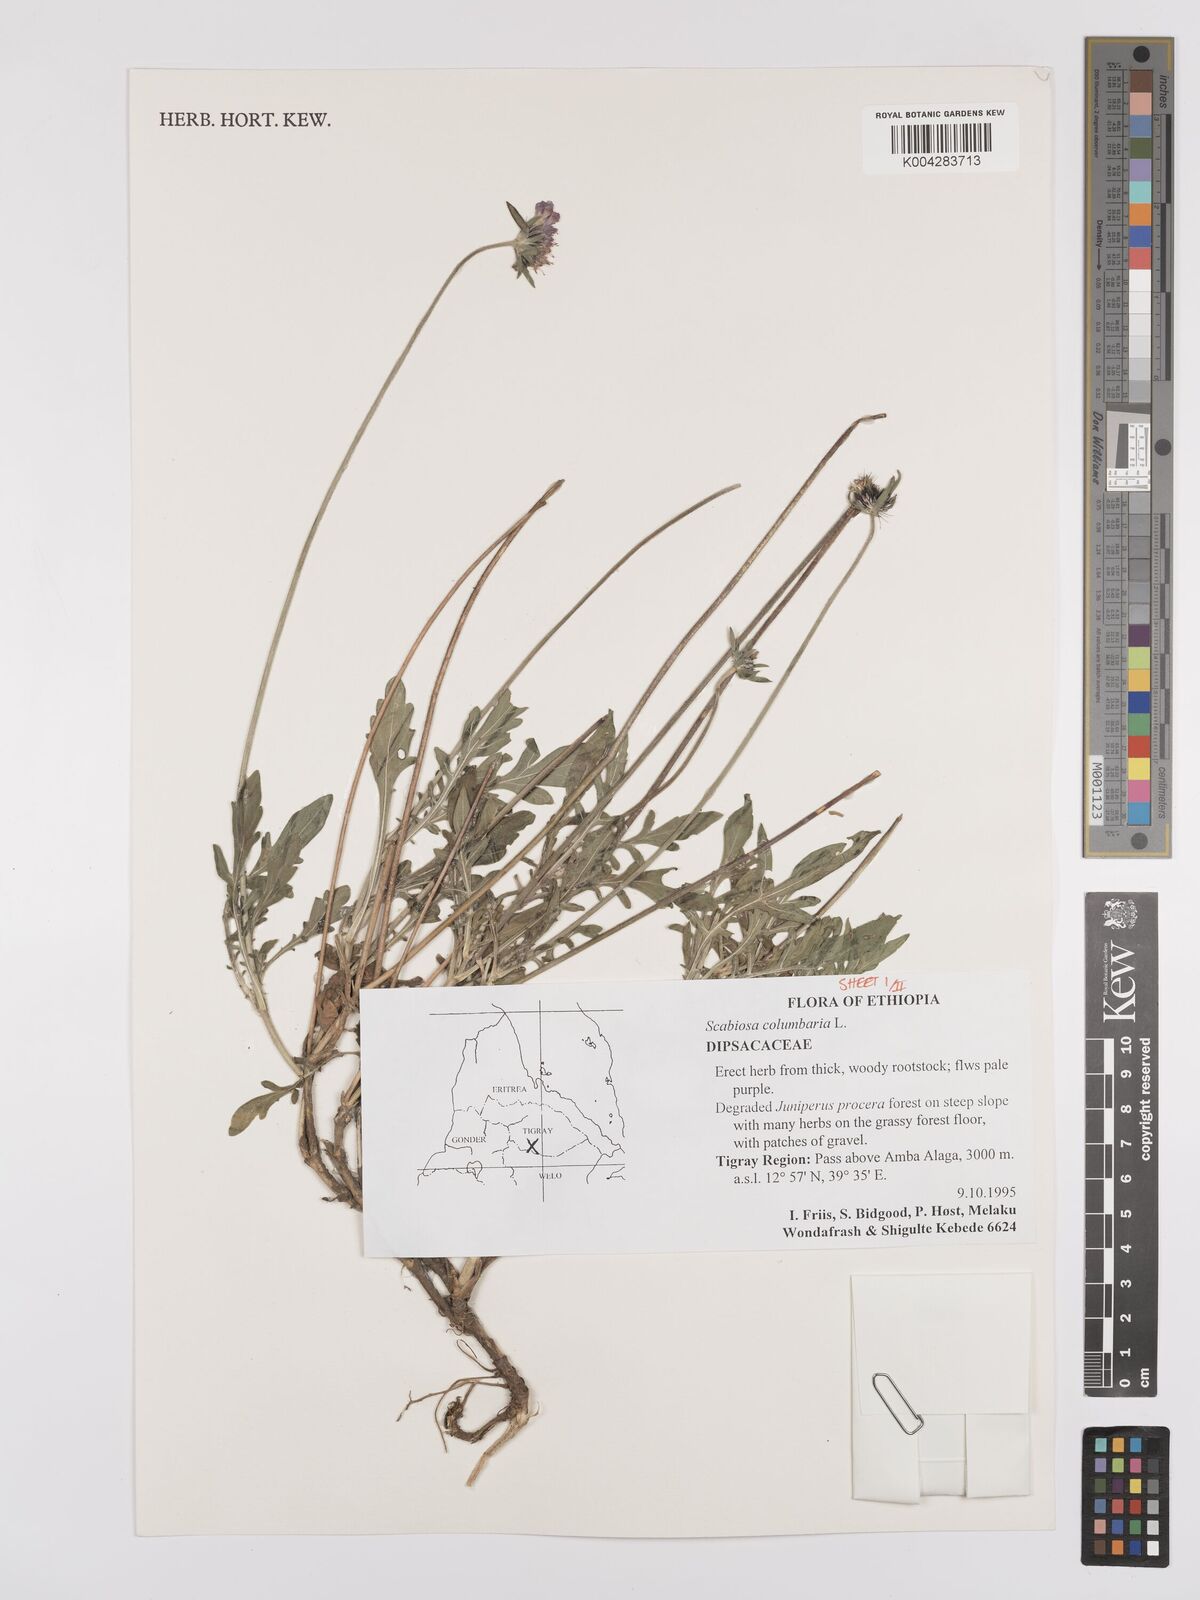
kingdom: Plantae
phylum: Tracheophyta
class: Magnoliopsida
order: Dipsacales
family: Caprifoliaceae
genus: Scabiosa
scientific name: Scabiosa columbaria
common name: Small scabious
